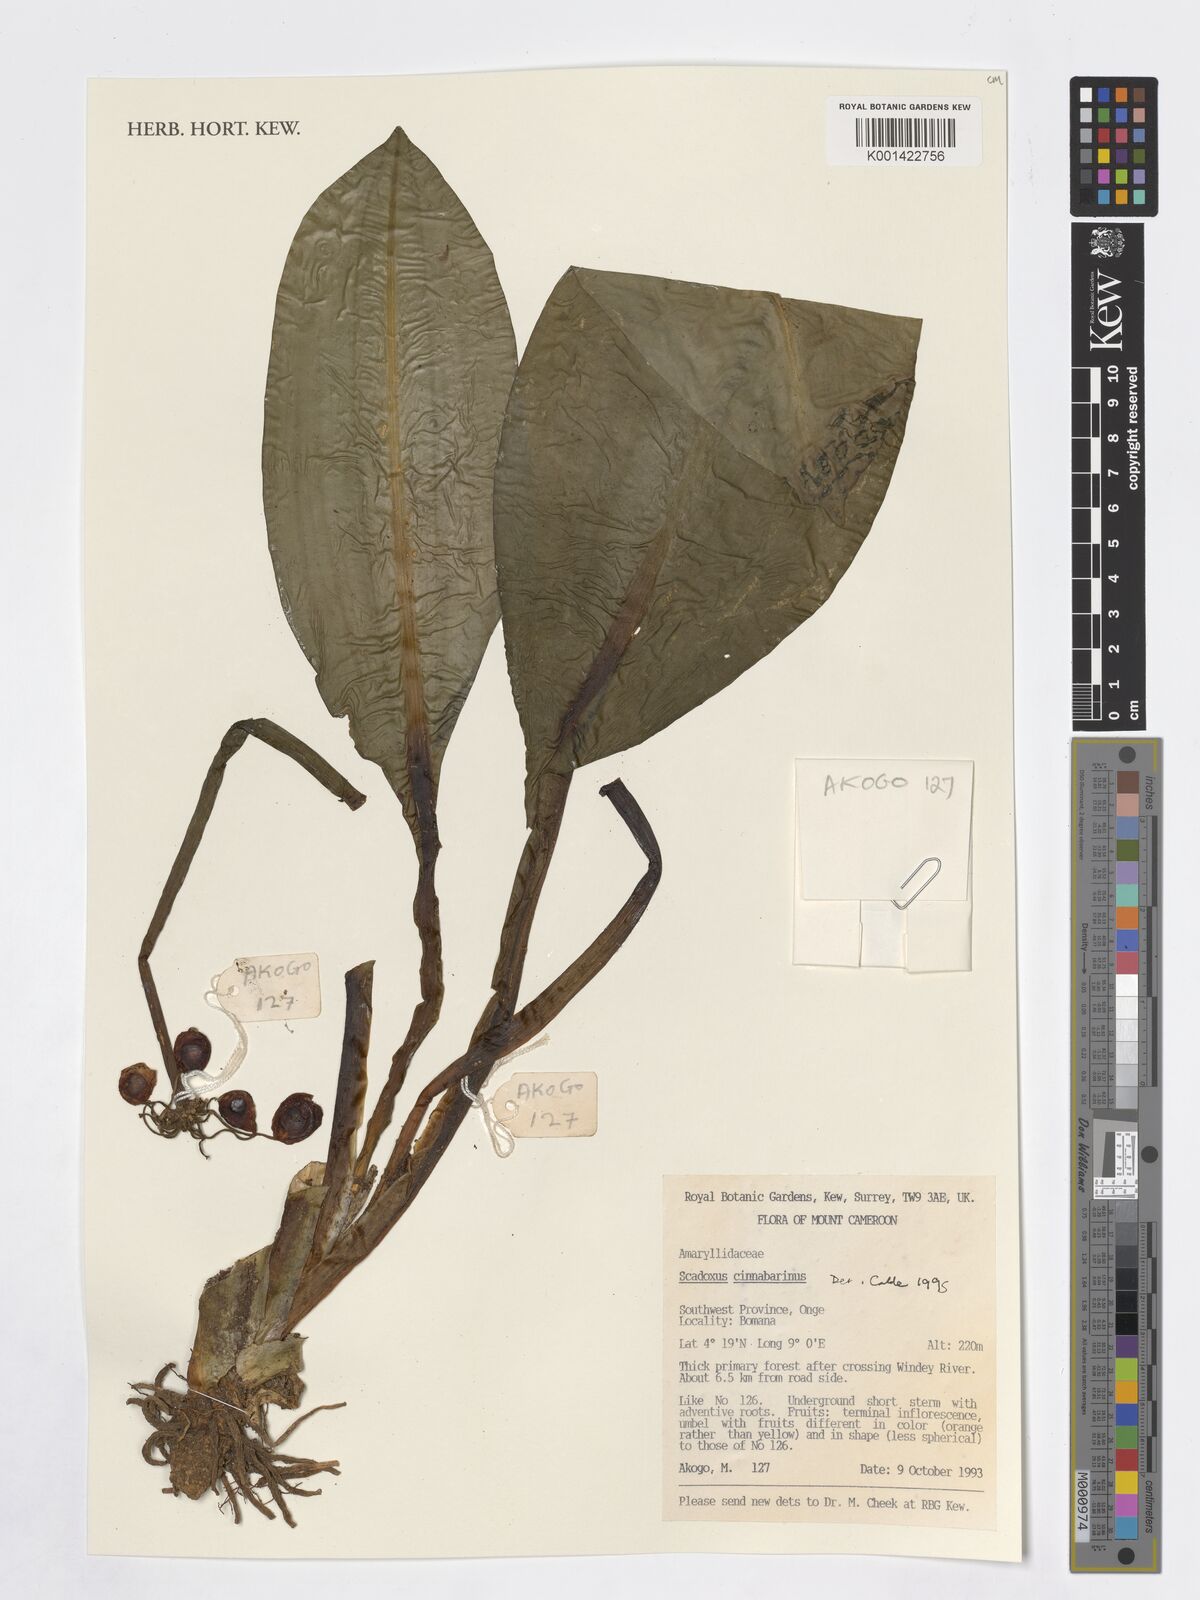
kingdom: Plantae
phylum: Tracheophyta
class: Liliopsida
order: Asparagales
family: Amaryllidaceae
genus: Scadoxus
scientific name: Scadoxus cinnabarinus
